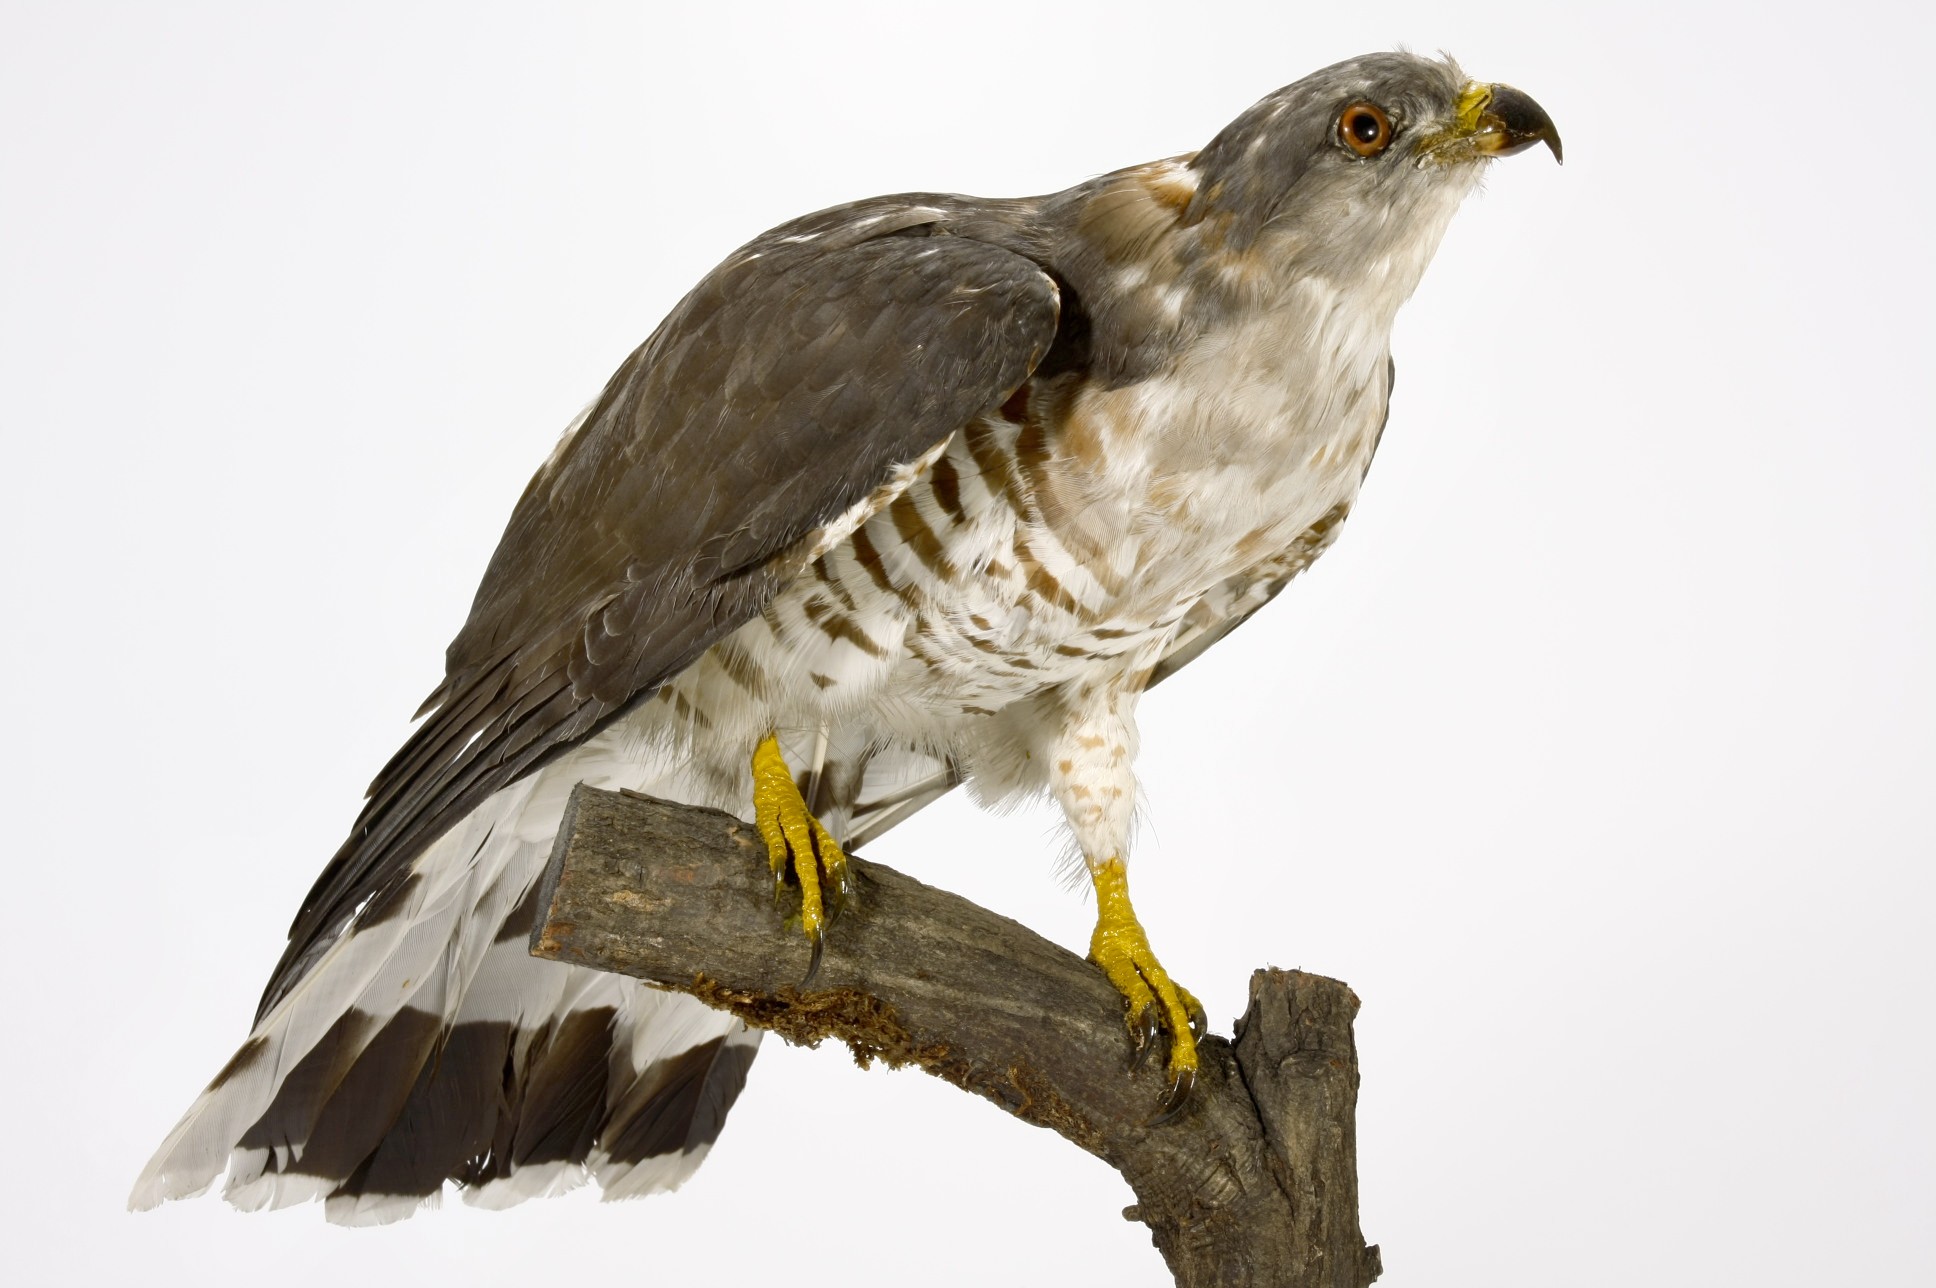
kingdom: Animalia
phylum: Chordata
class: Aves
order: Accipitriformes
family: Accipitridae
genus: Aviceda
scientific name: Aviceda cuculoides
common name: African cuckoo-hawk
